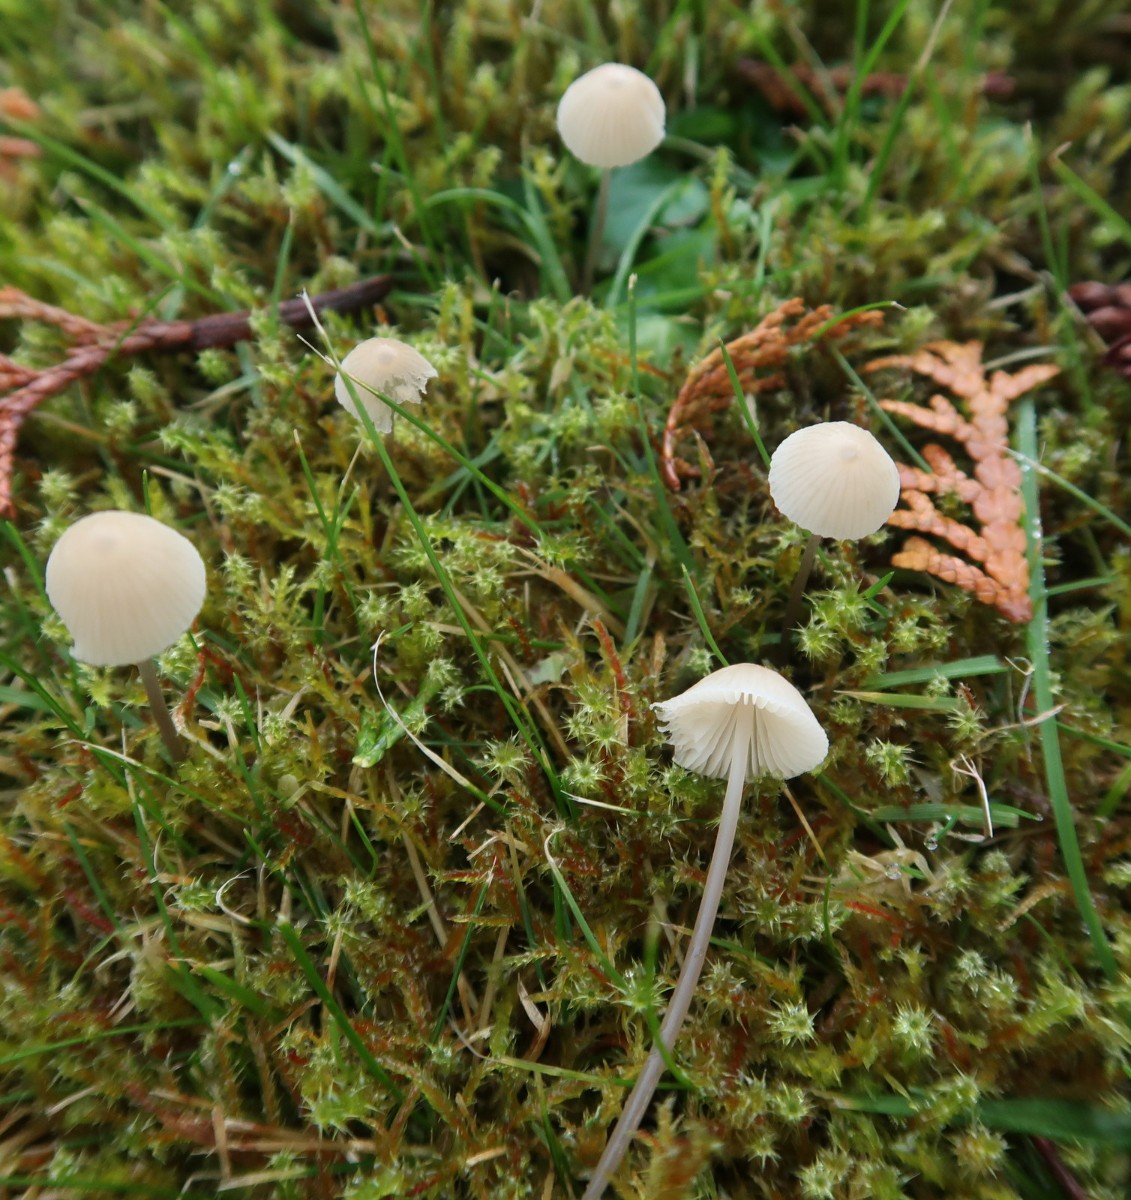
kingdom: Fungi
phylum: Basidiomycota
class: Agaricomycetes
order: Agaricales
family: Mycenaceae
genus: Atheniella
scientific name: Atheniella flavoalba
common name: gulhvid huesvamp
